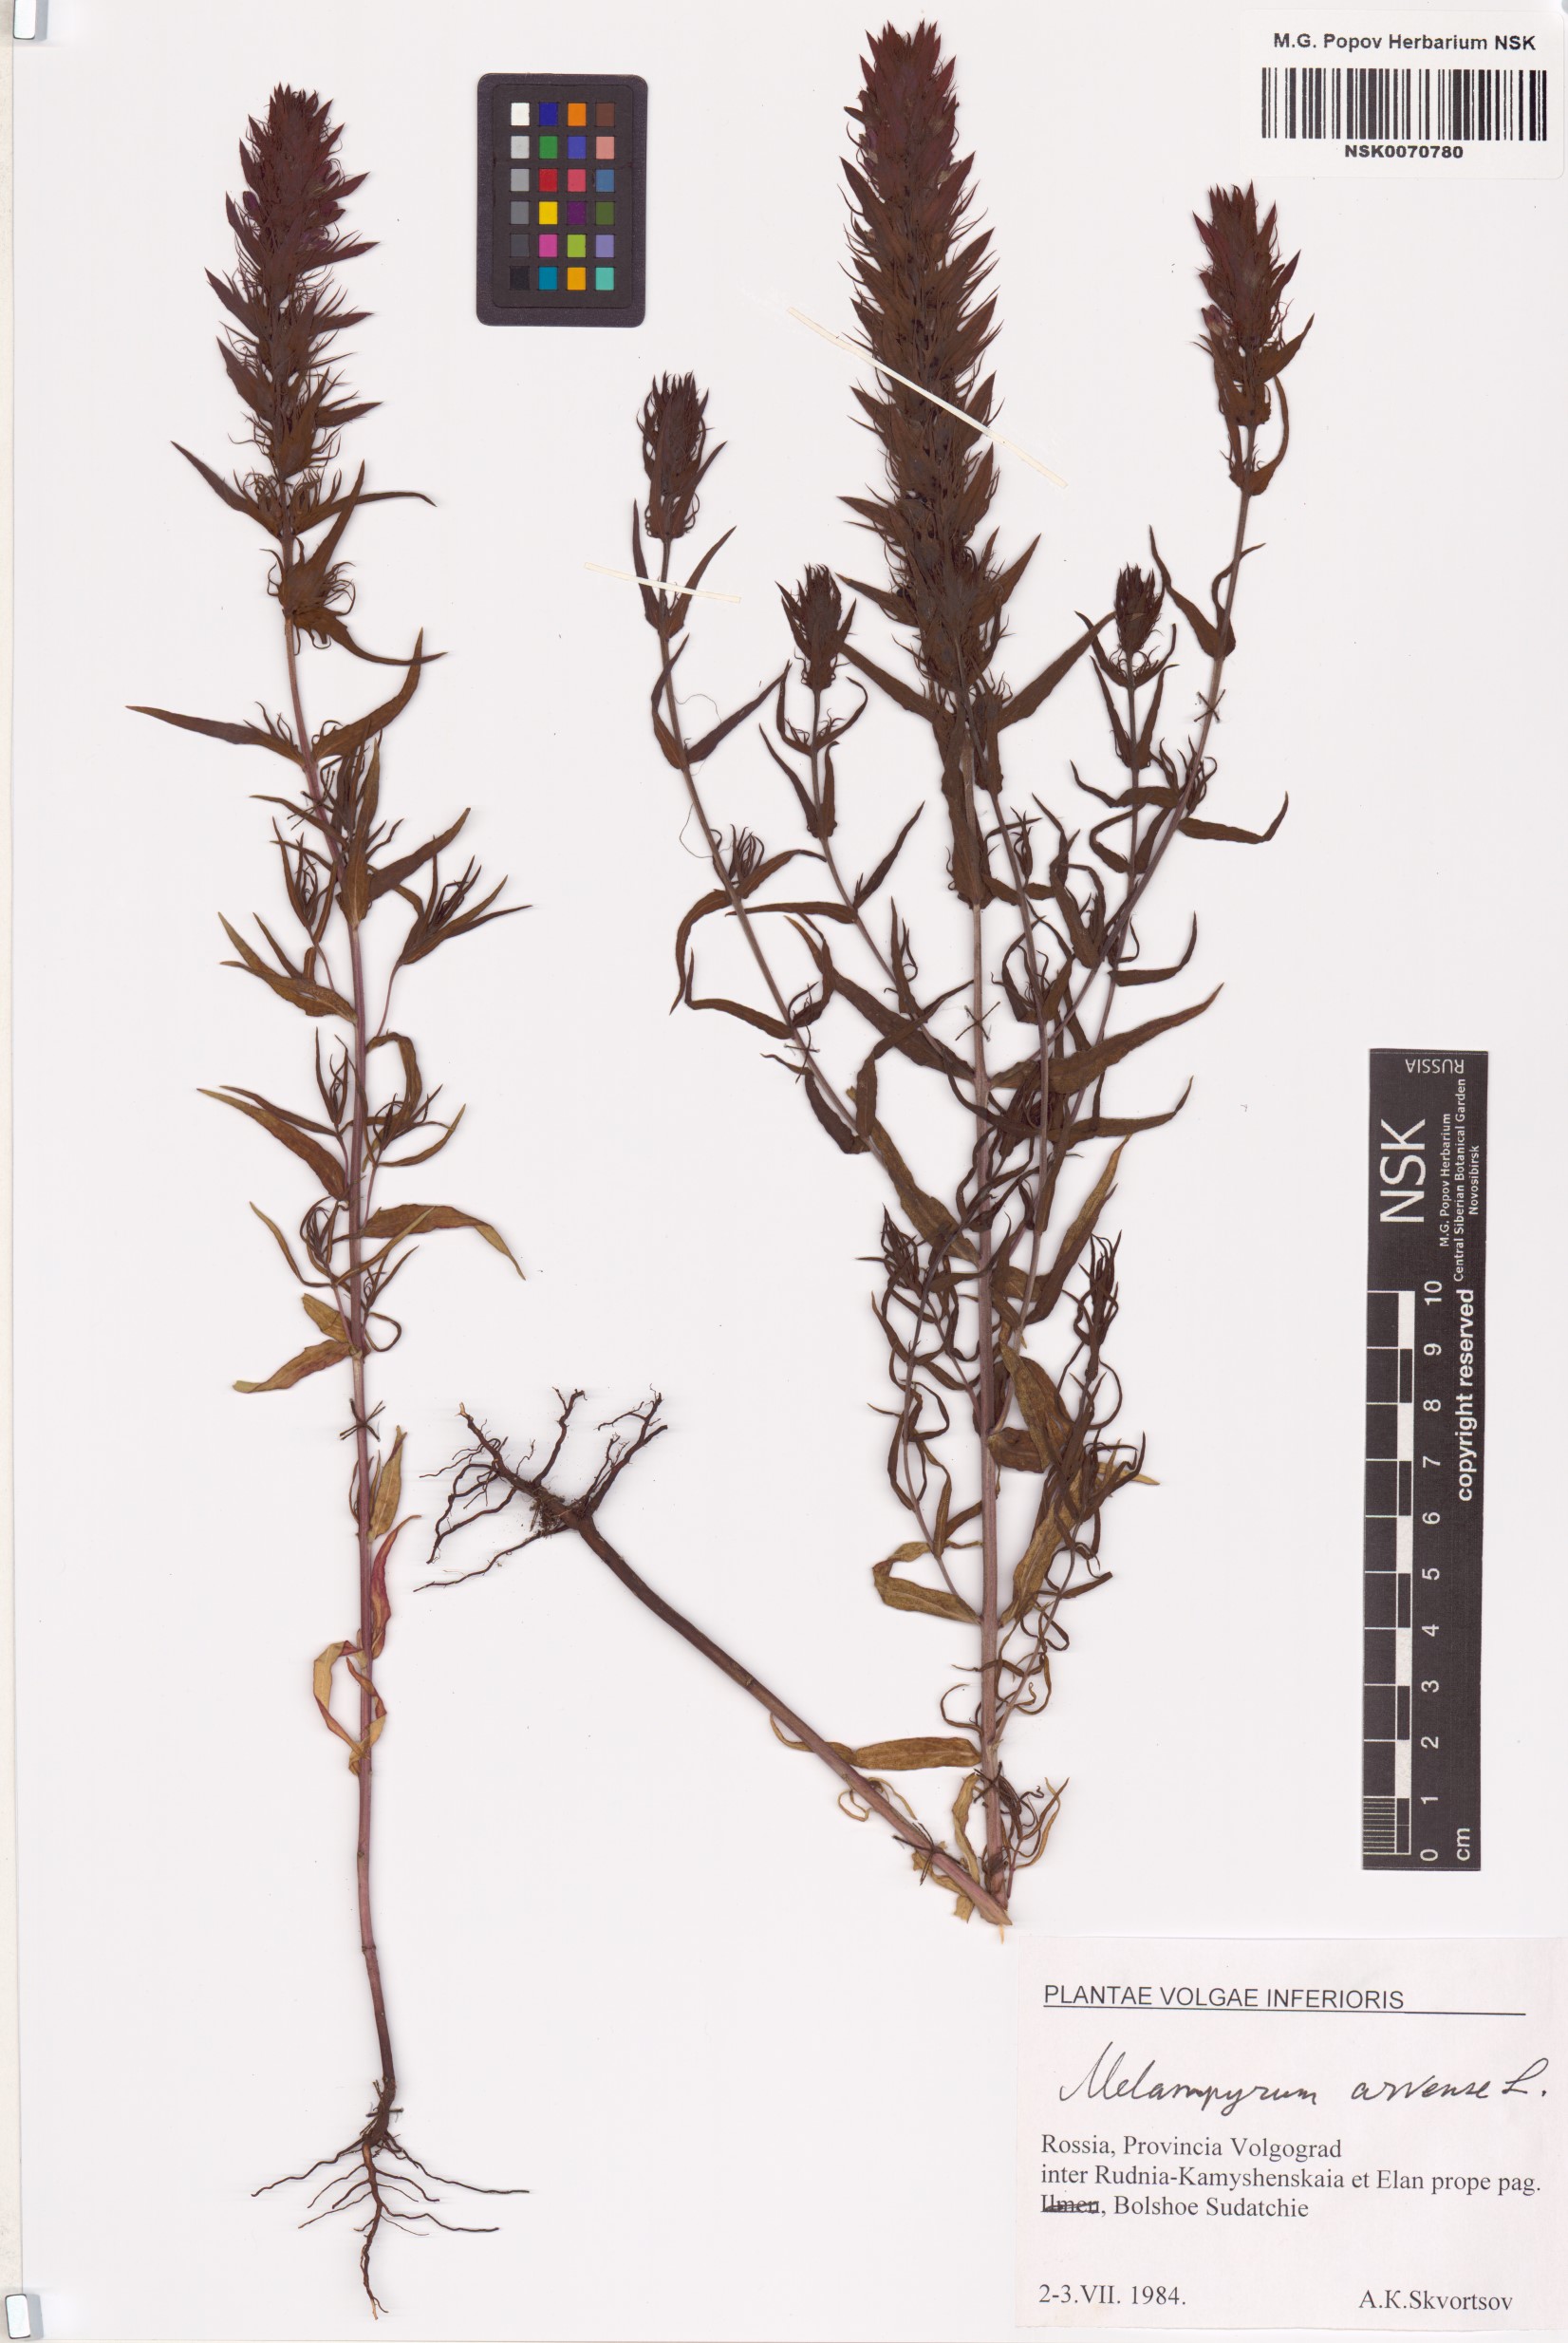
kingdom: Plantae
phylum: Tracheophyta
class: Magnoliopsida
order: Lamiales
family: Orobanchaceae
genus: Melampyrum
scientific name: Melampyrum arvense
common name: Field cow-wheat
